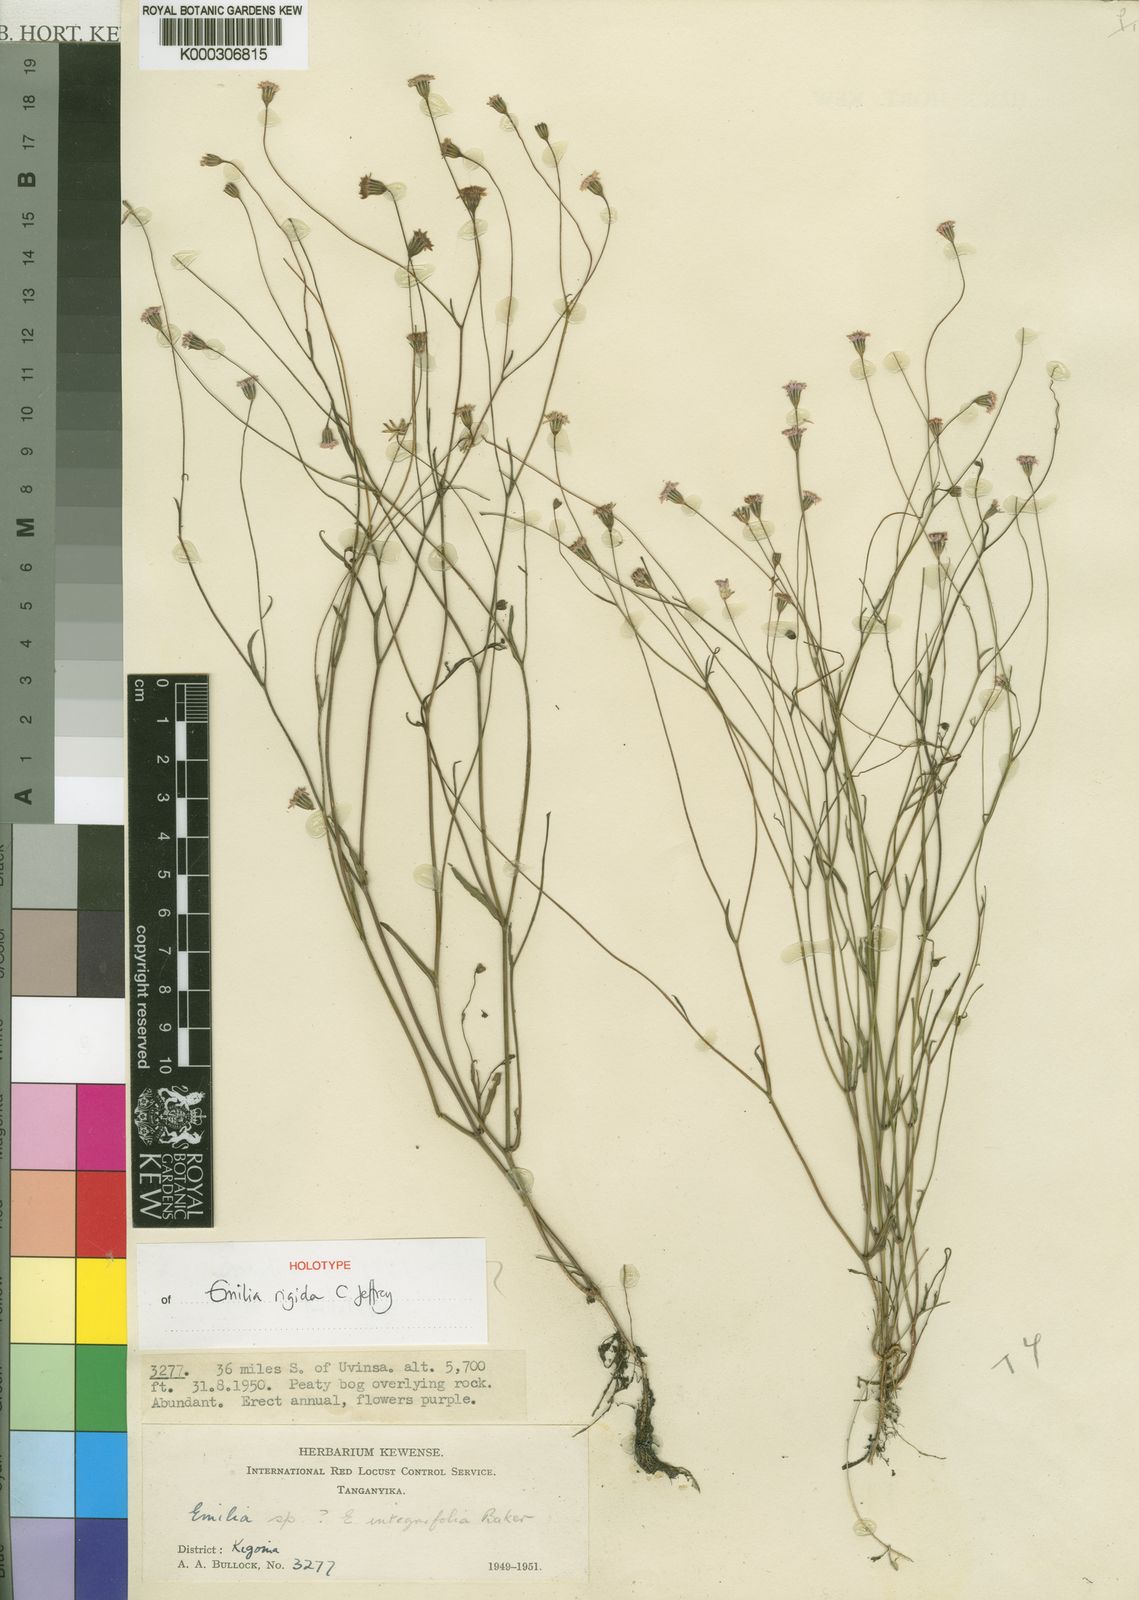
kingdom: Plantae
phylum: Tracheophyta
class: Magnoliopsida
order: Asterales
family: Asteraceae
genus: Emilia
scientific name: Emilia rigida
